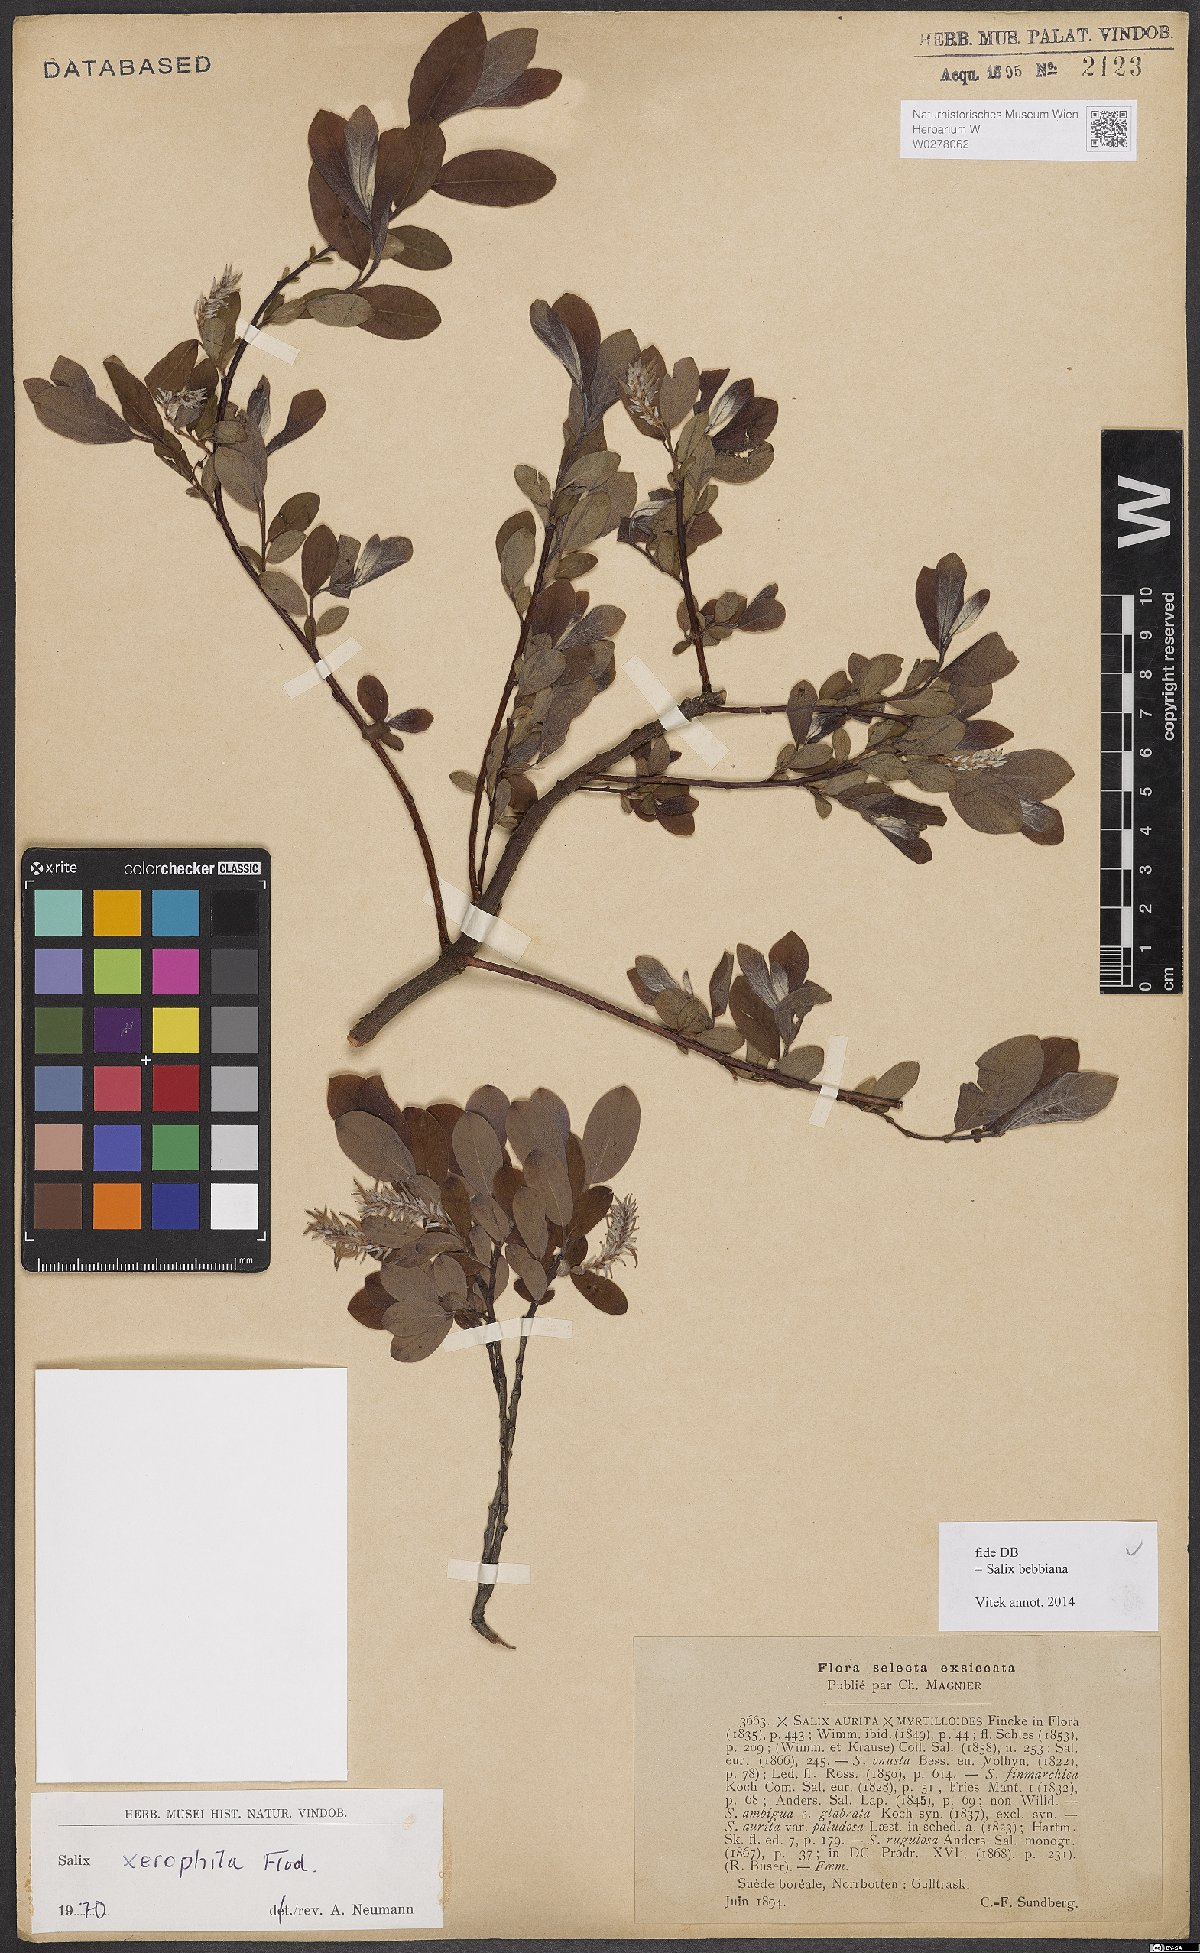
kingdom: Plantae
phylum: Tracheophyta
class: Magnoliopsida
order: Malpighiales
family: Salicaceae
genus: Salix
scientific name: Salix bebbiana
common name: Bebb's willow
